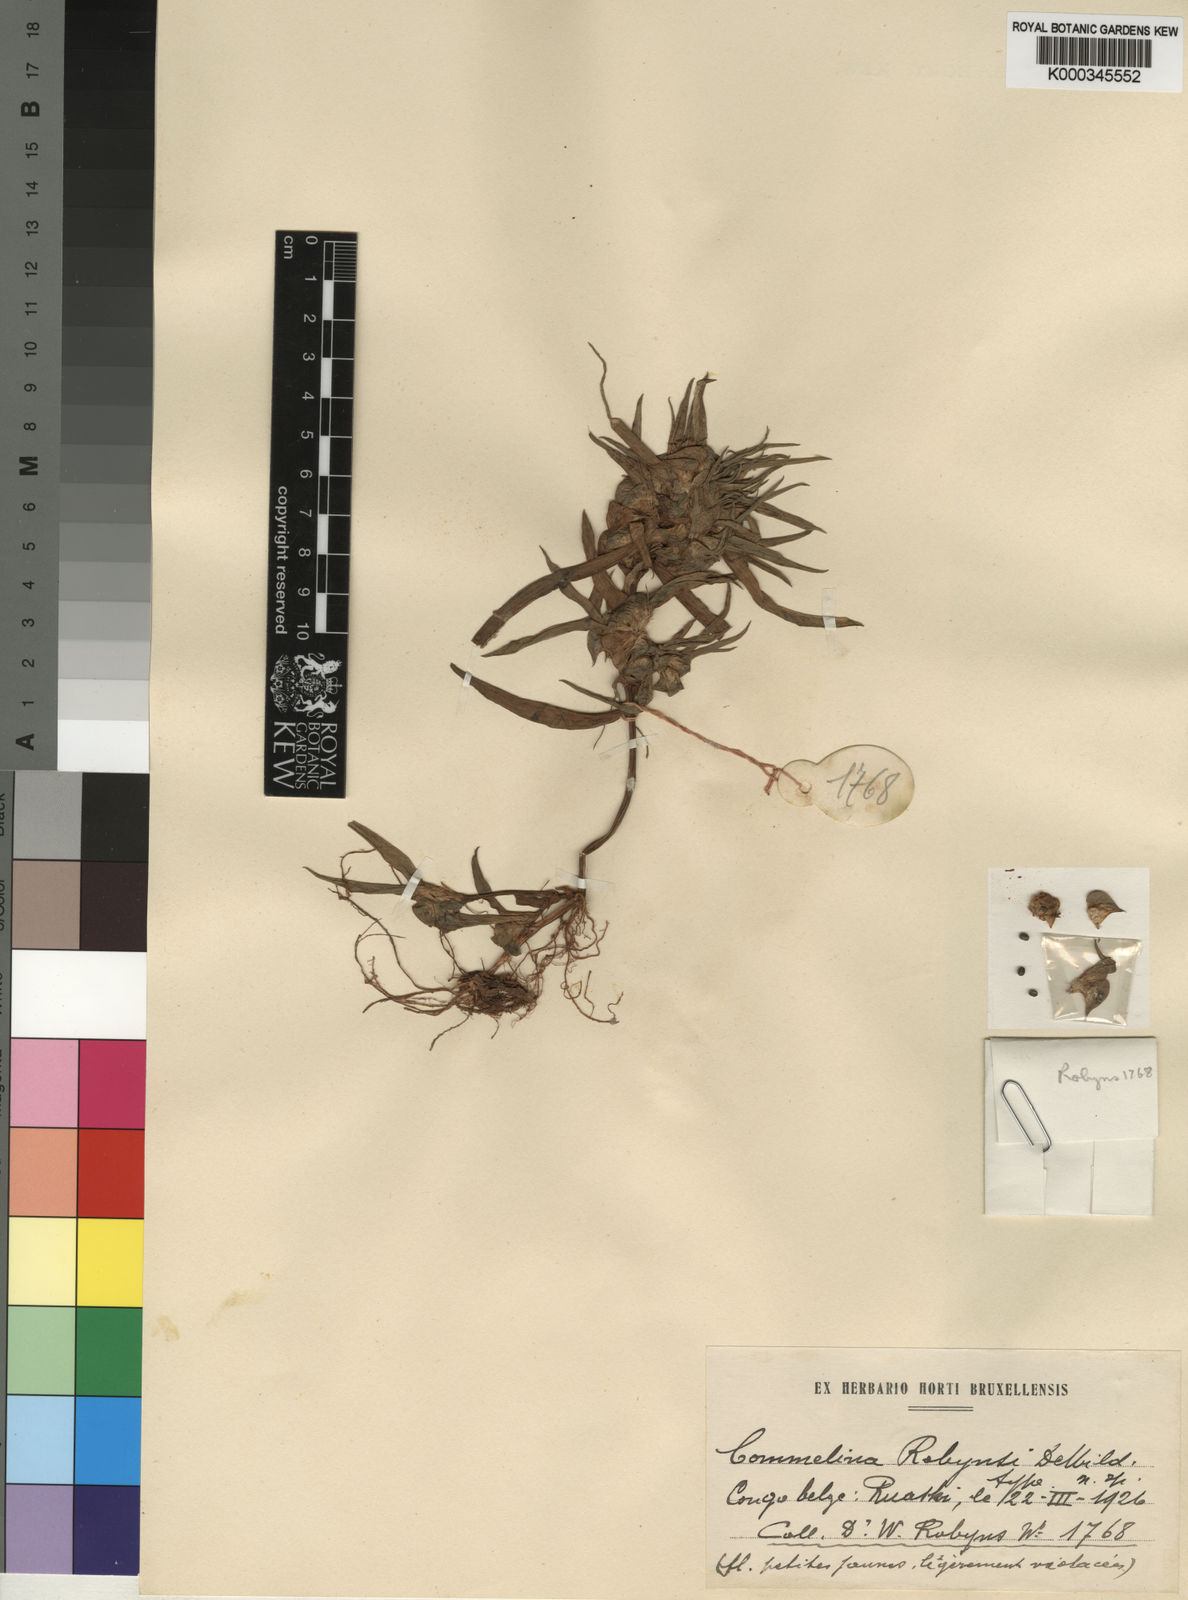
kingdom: Plantae
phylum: Tracheophyta
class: Liliopsida
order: Commelinales
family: Commelinaceae
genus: Commelina
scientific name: Commelina robynsii
